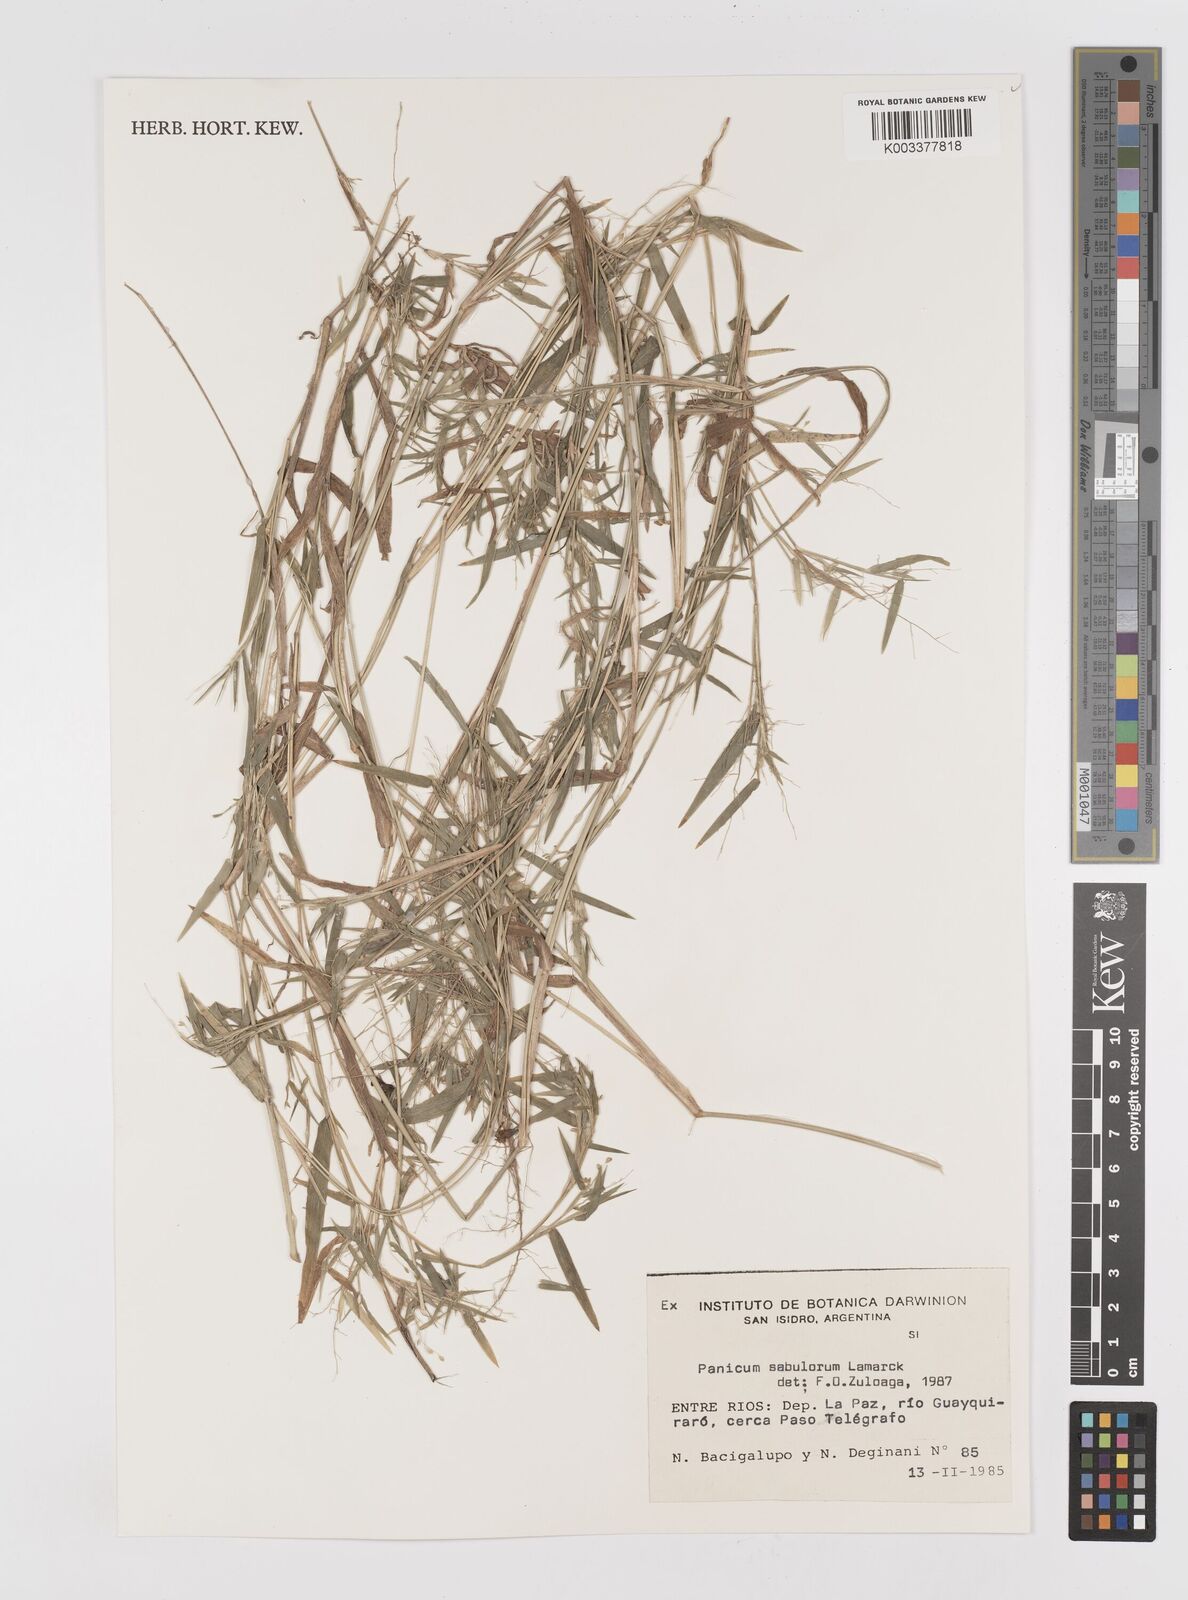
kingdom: Plantae
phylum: Tracheophyta
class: Liliopsida
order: Poales
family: Poaceae
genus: Dichanthelium
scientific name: Dichanthelium sabulorum
